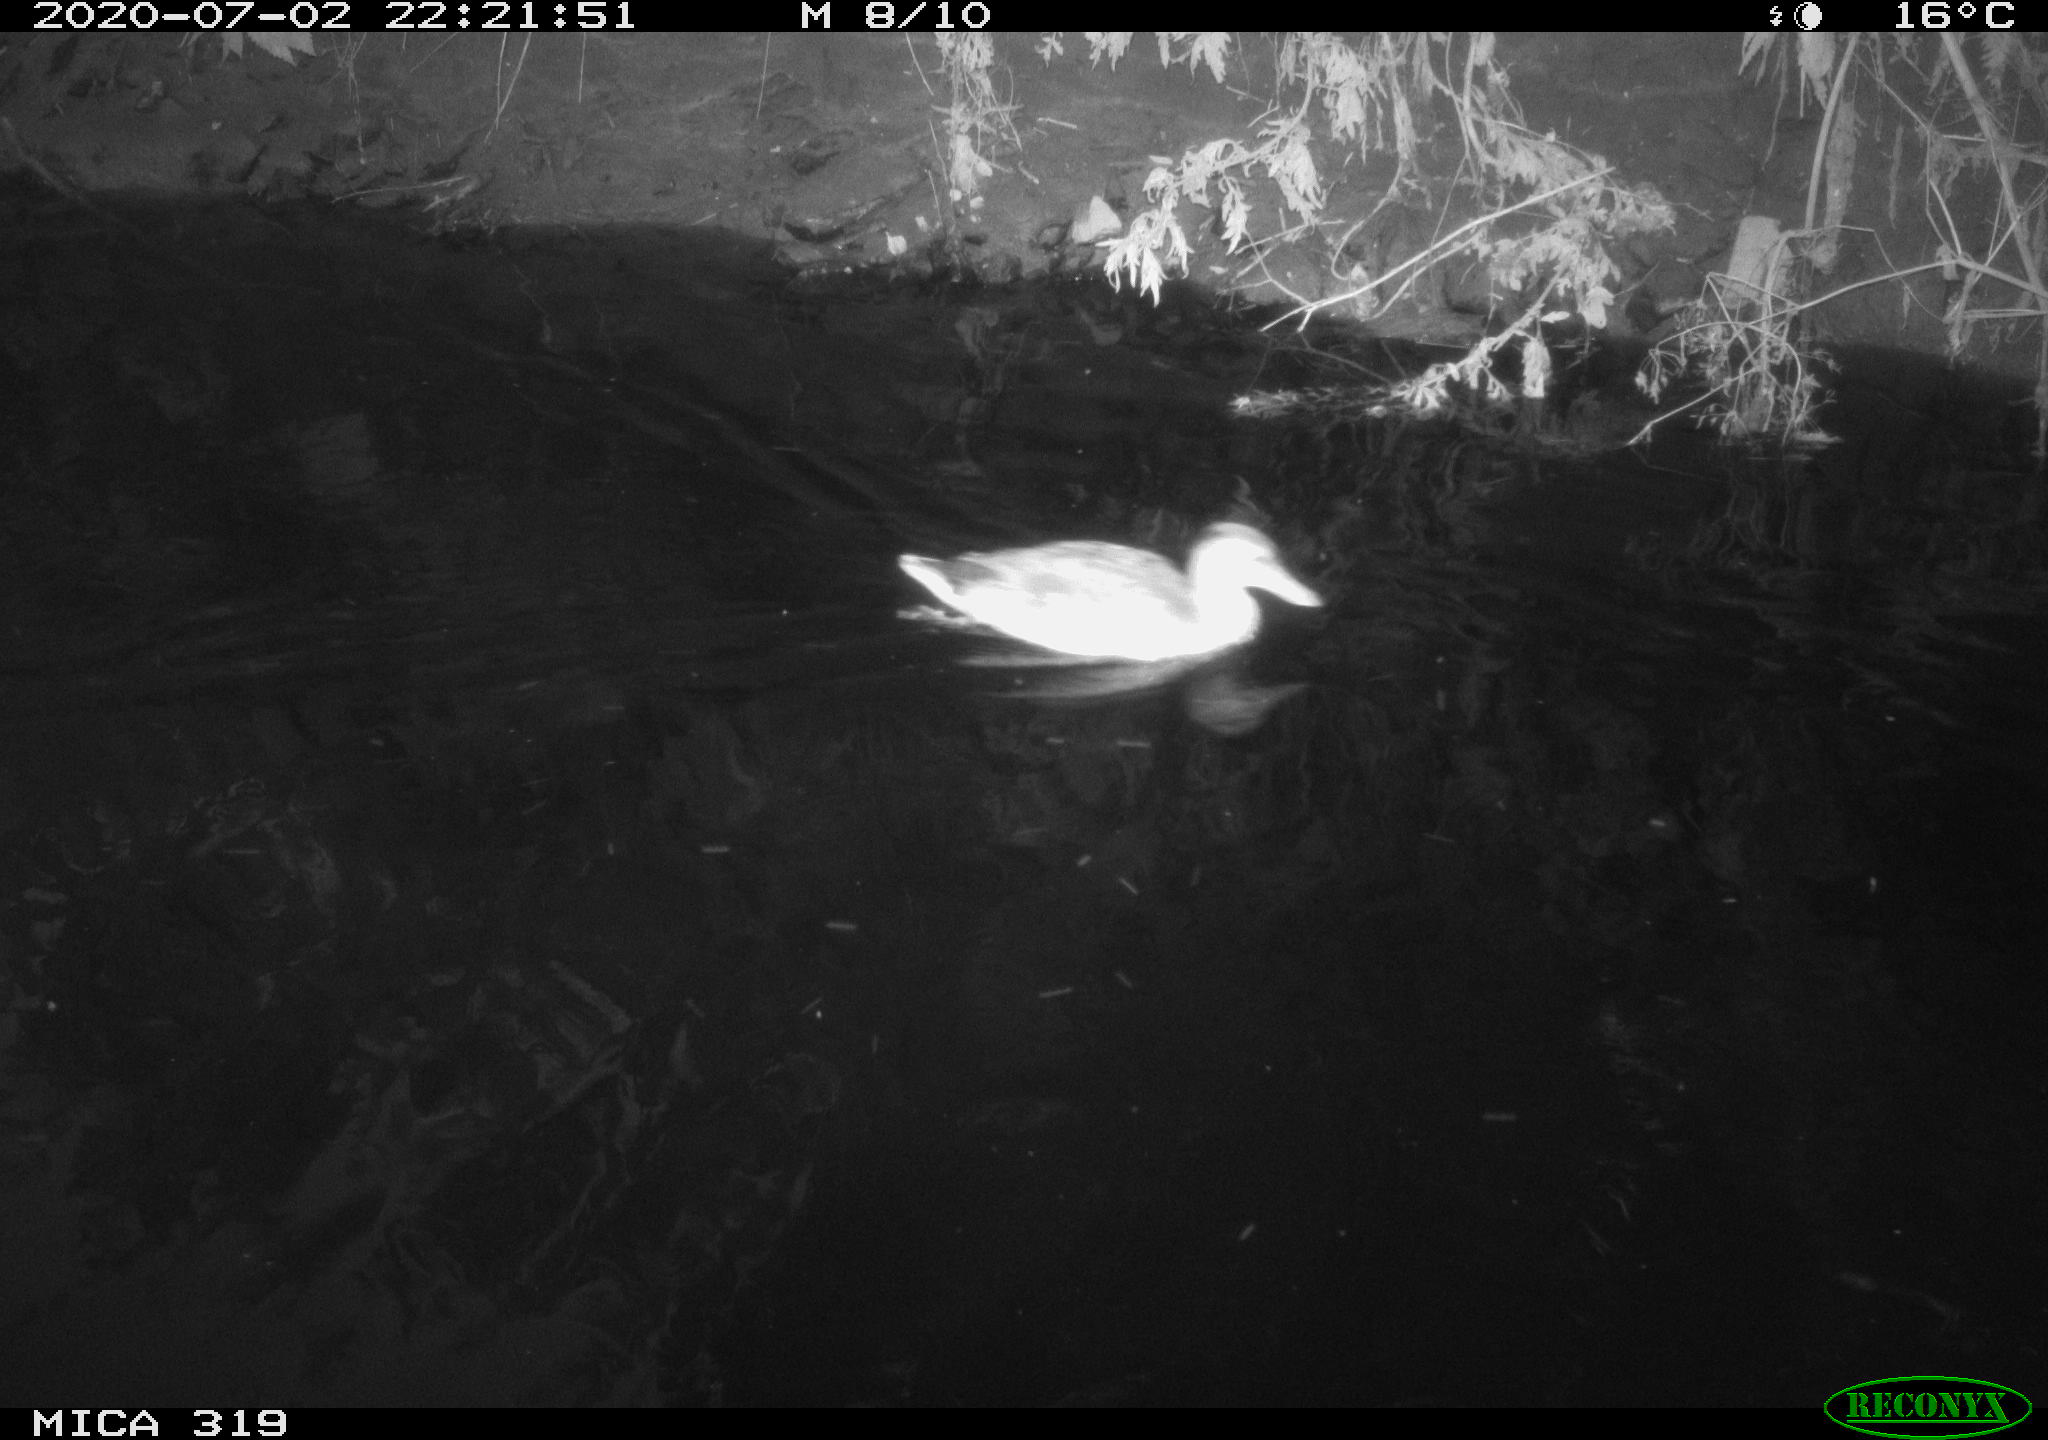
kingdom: Animalia
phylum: Chordata
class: Aves
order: Anseriformes
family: Anatidae
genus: Anas
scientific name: Anas platyrhynchos
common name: Mallard
